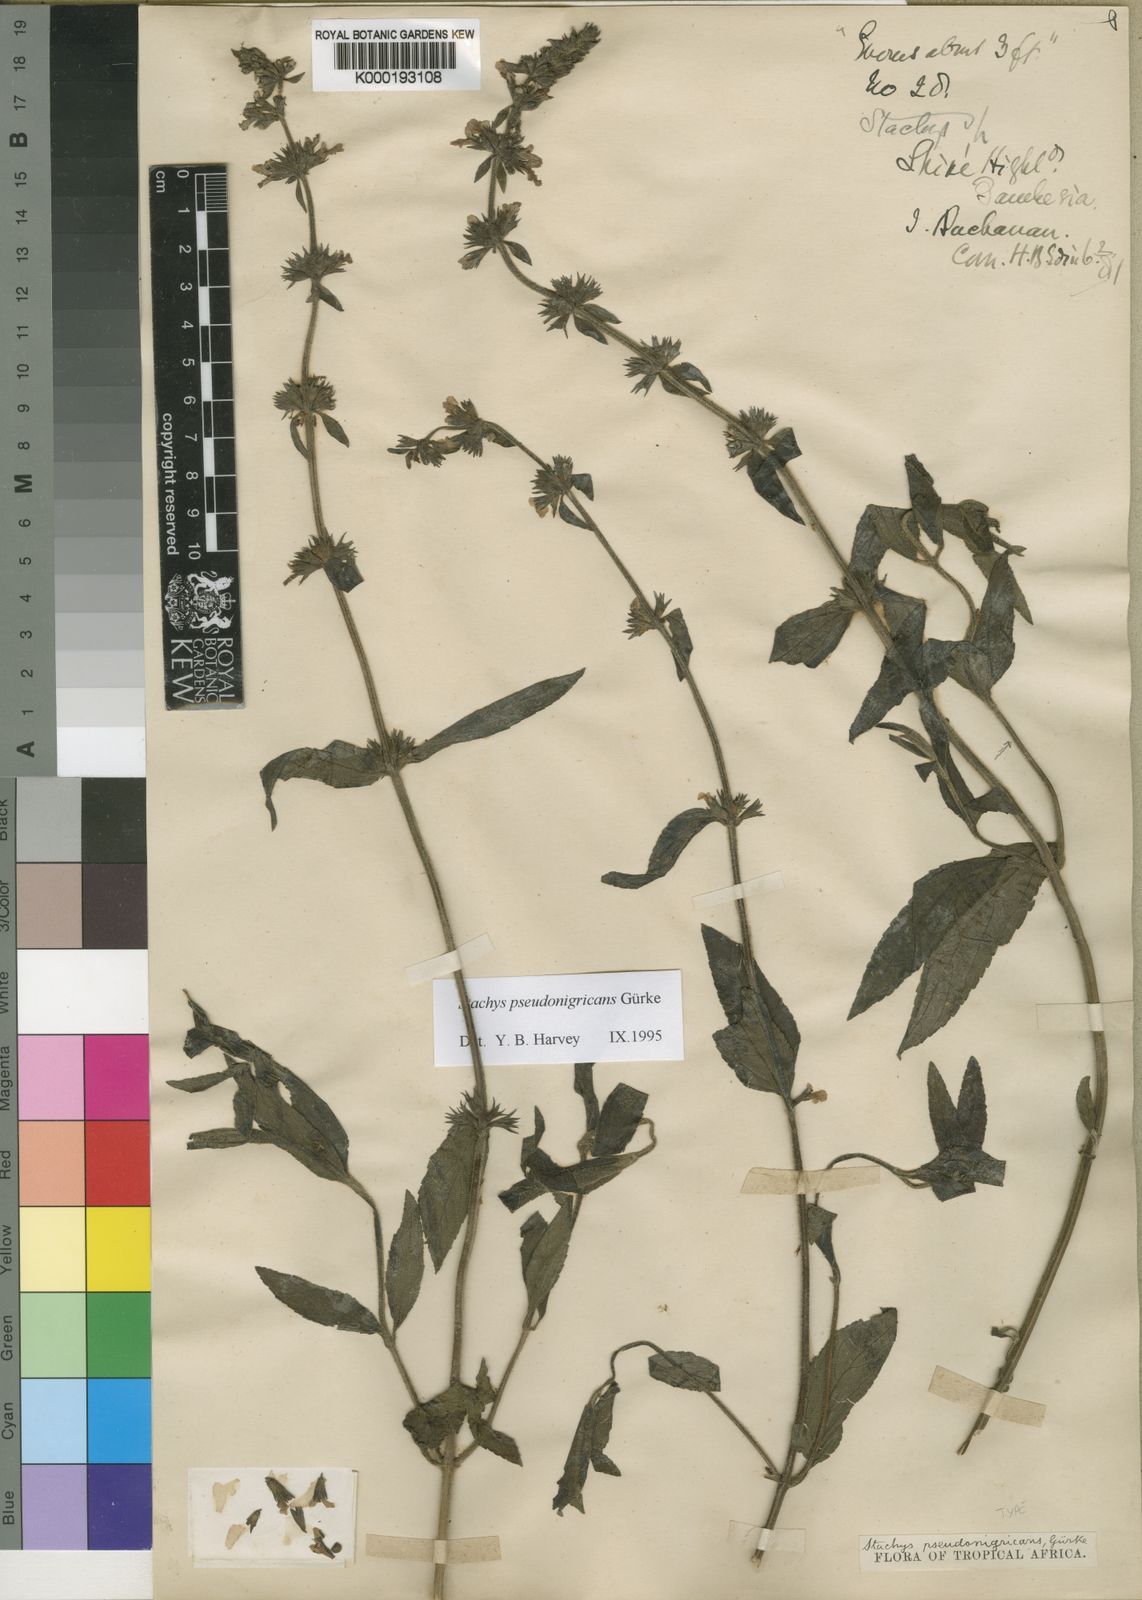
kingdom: Plantae
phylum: Tracheophyta
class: Magnoliopsida
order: Lamiales
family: Lamiaceae
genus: Stachys
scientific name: Stachys
